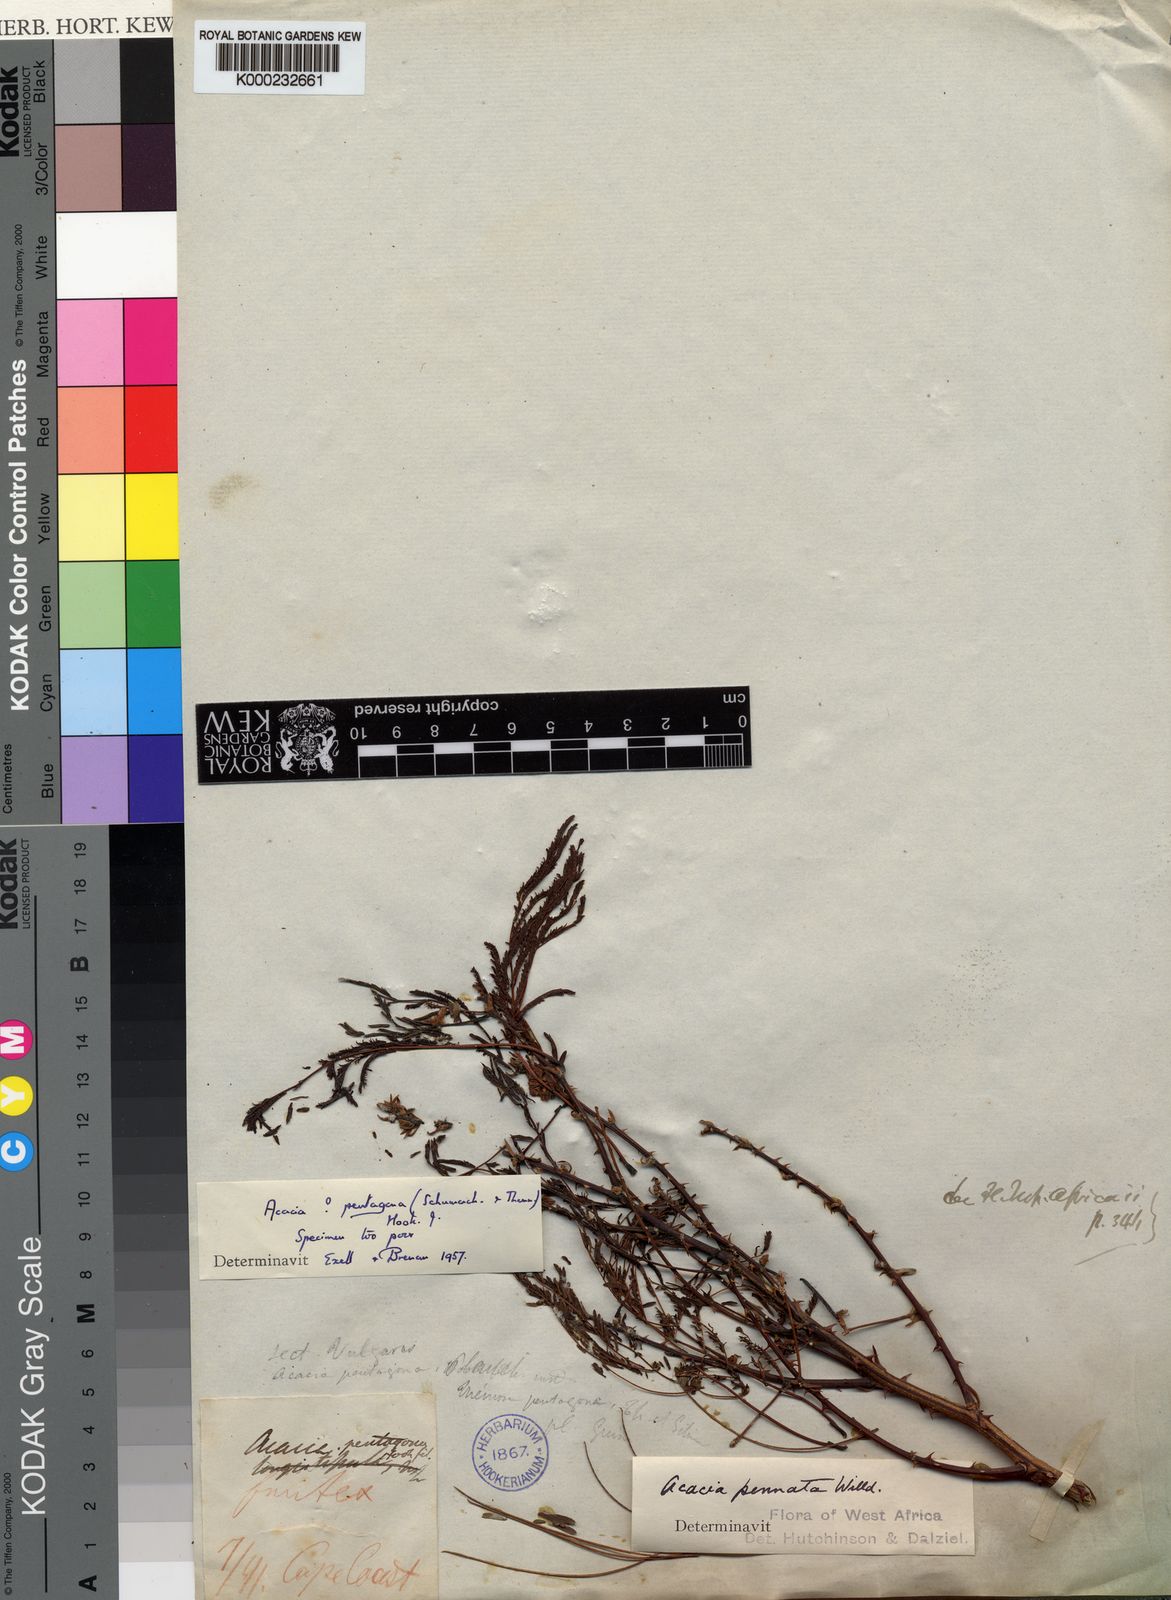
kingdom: Plantae
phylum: Tracheophyta
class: Magnoliopsida
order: Fabales
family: Fabaceae
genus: Senegalia
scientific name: Senegalia pentagona
